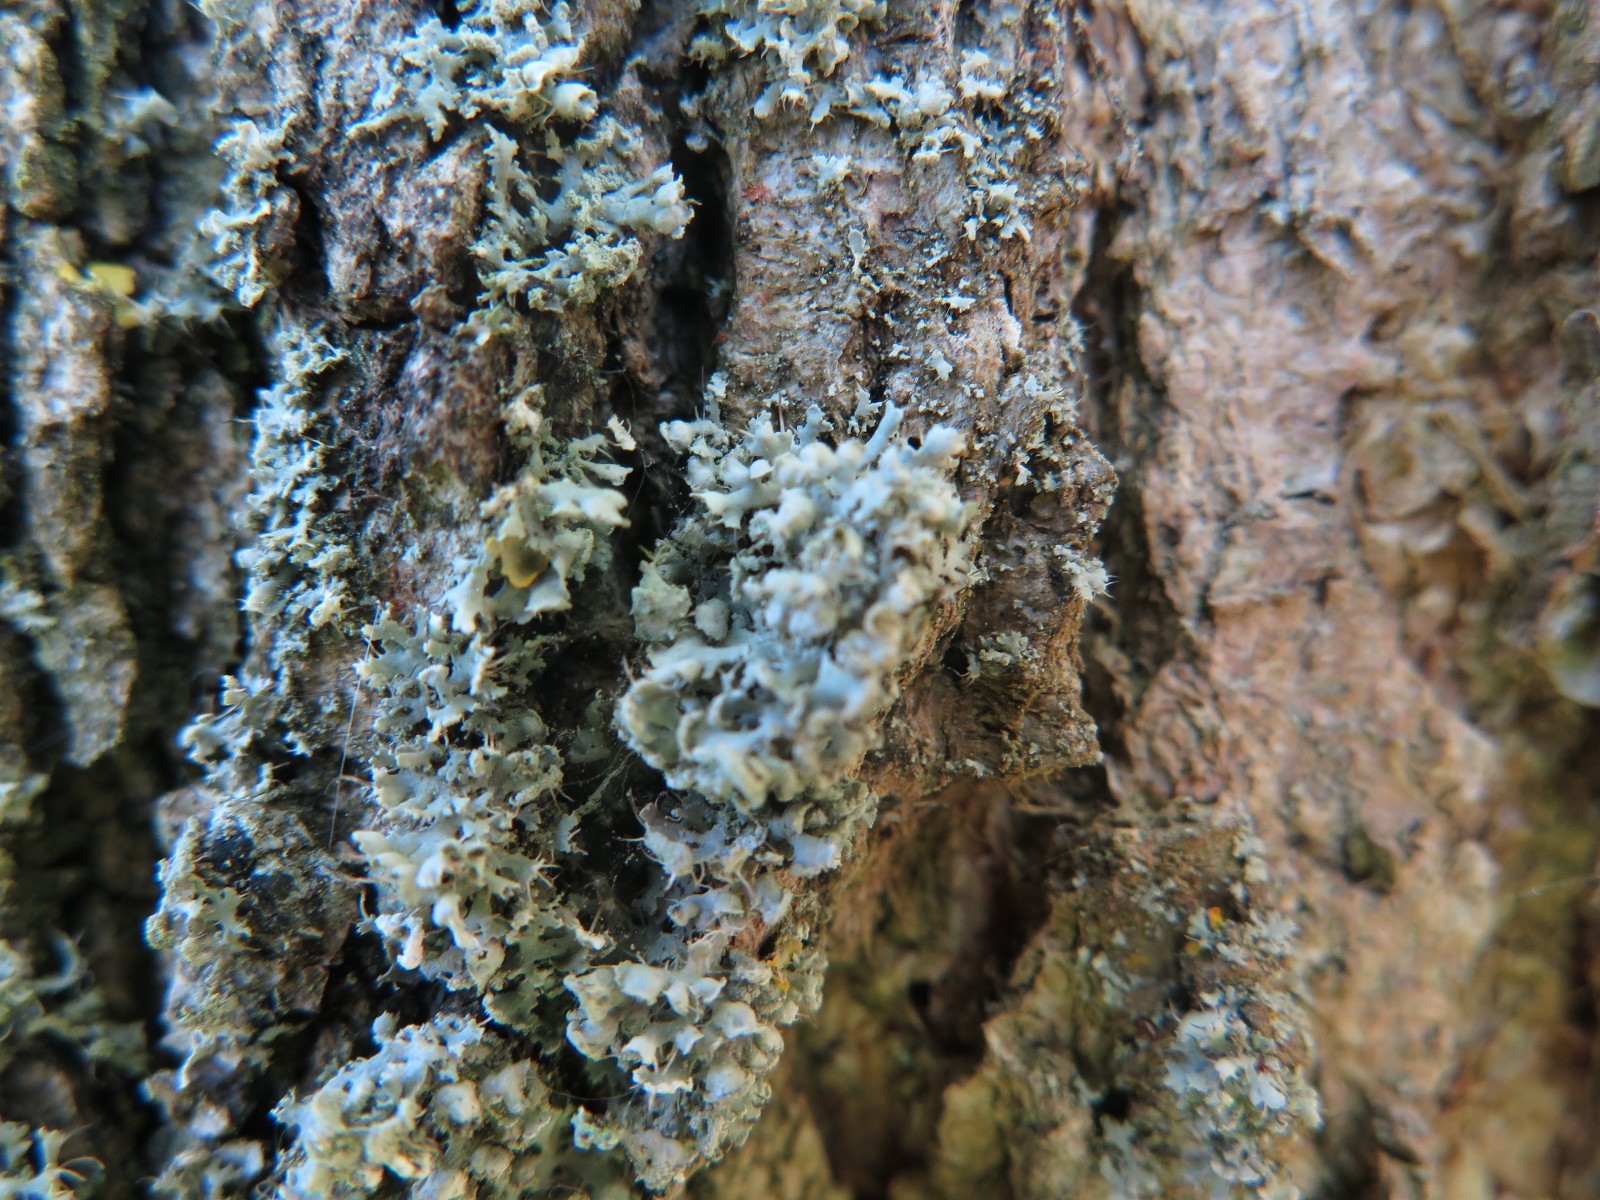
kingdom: Fungi
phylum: Ascomycota
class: Lecanoromycetes
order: Caliciales
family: Physciaceae
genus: Physcia
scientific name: Physcia adscendens
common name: hætte-rosetlav
